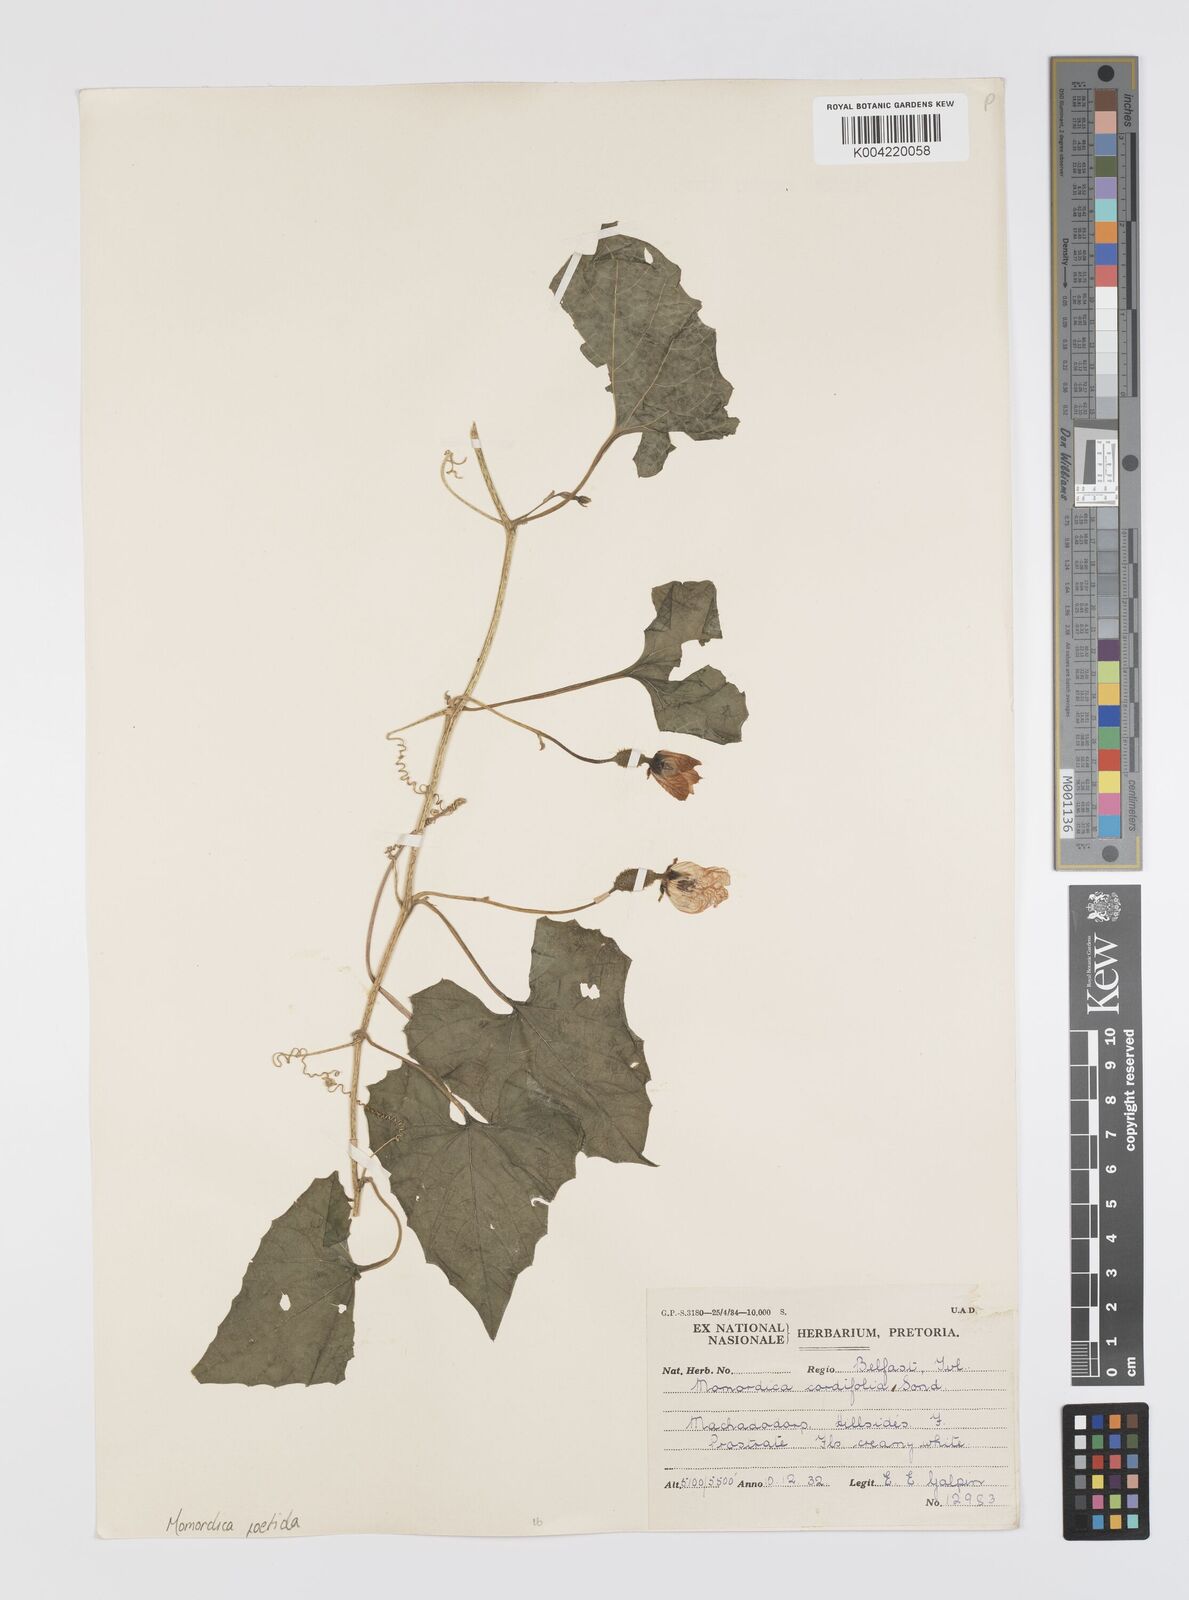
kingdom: Plantae
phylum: Tracheophyta
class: Magnoliopsida
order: Cucurbitales
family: Cucurbitaceae
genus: Momordica
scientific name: Momordica foetida
